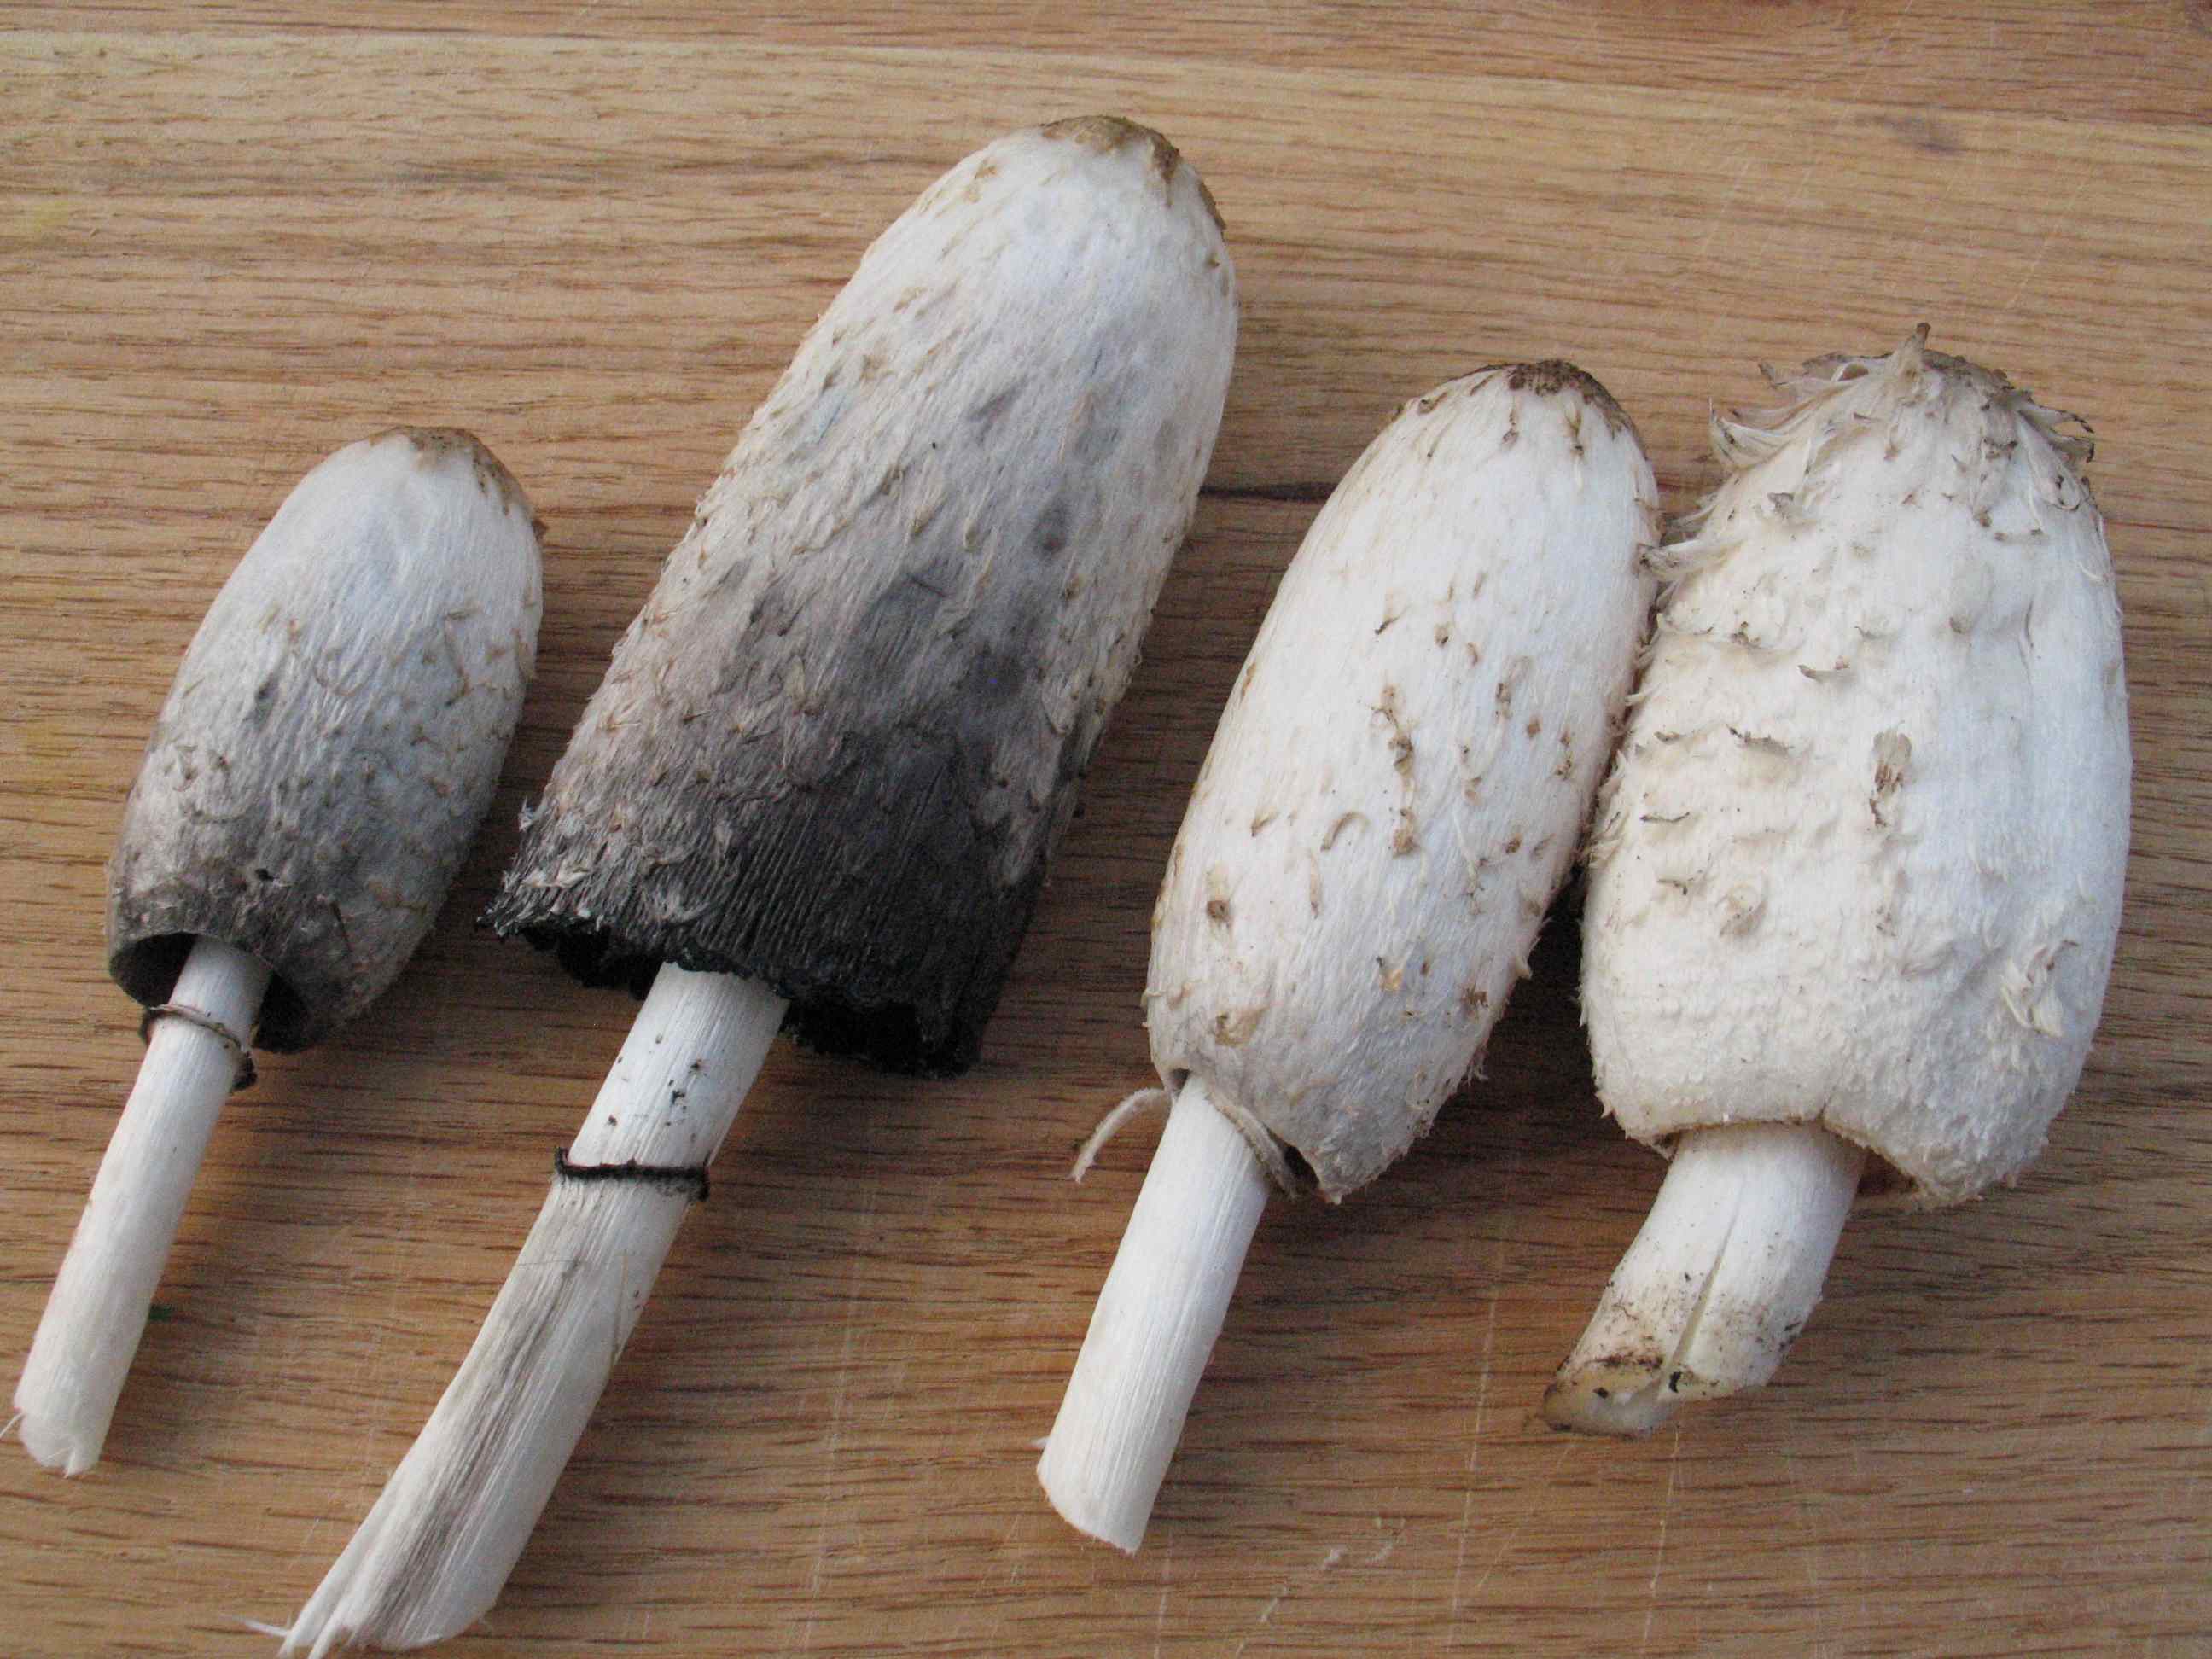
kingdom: Fungi
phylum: Basidiomycota
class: Agaricomycetes
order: Agaricales
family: Agaricaceae
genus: Coprinus
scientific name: Coprinus comatus
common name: stor parykhat
